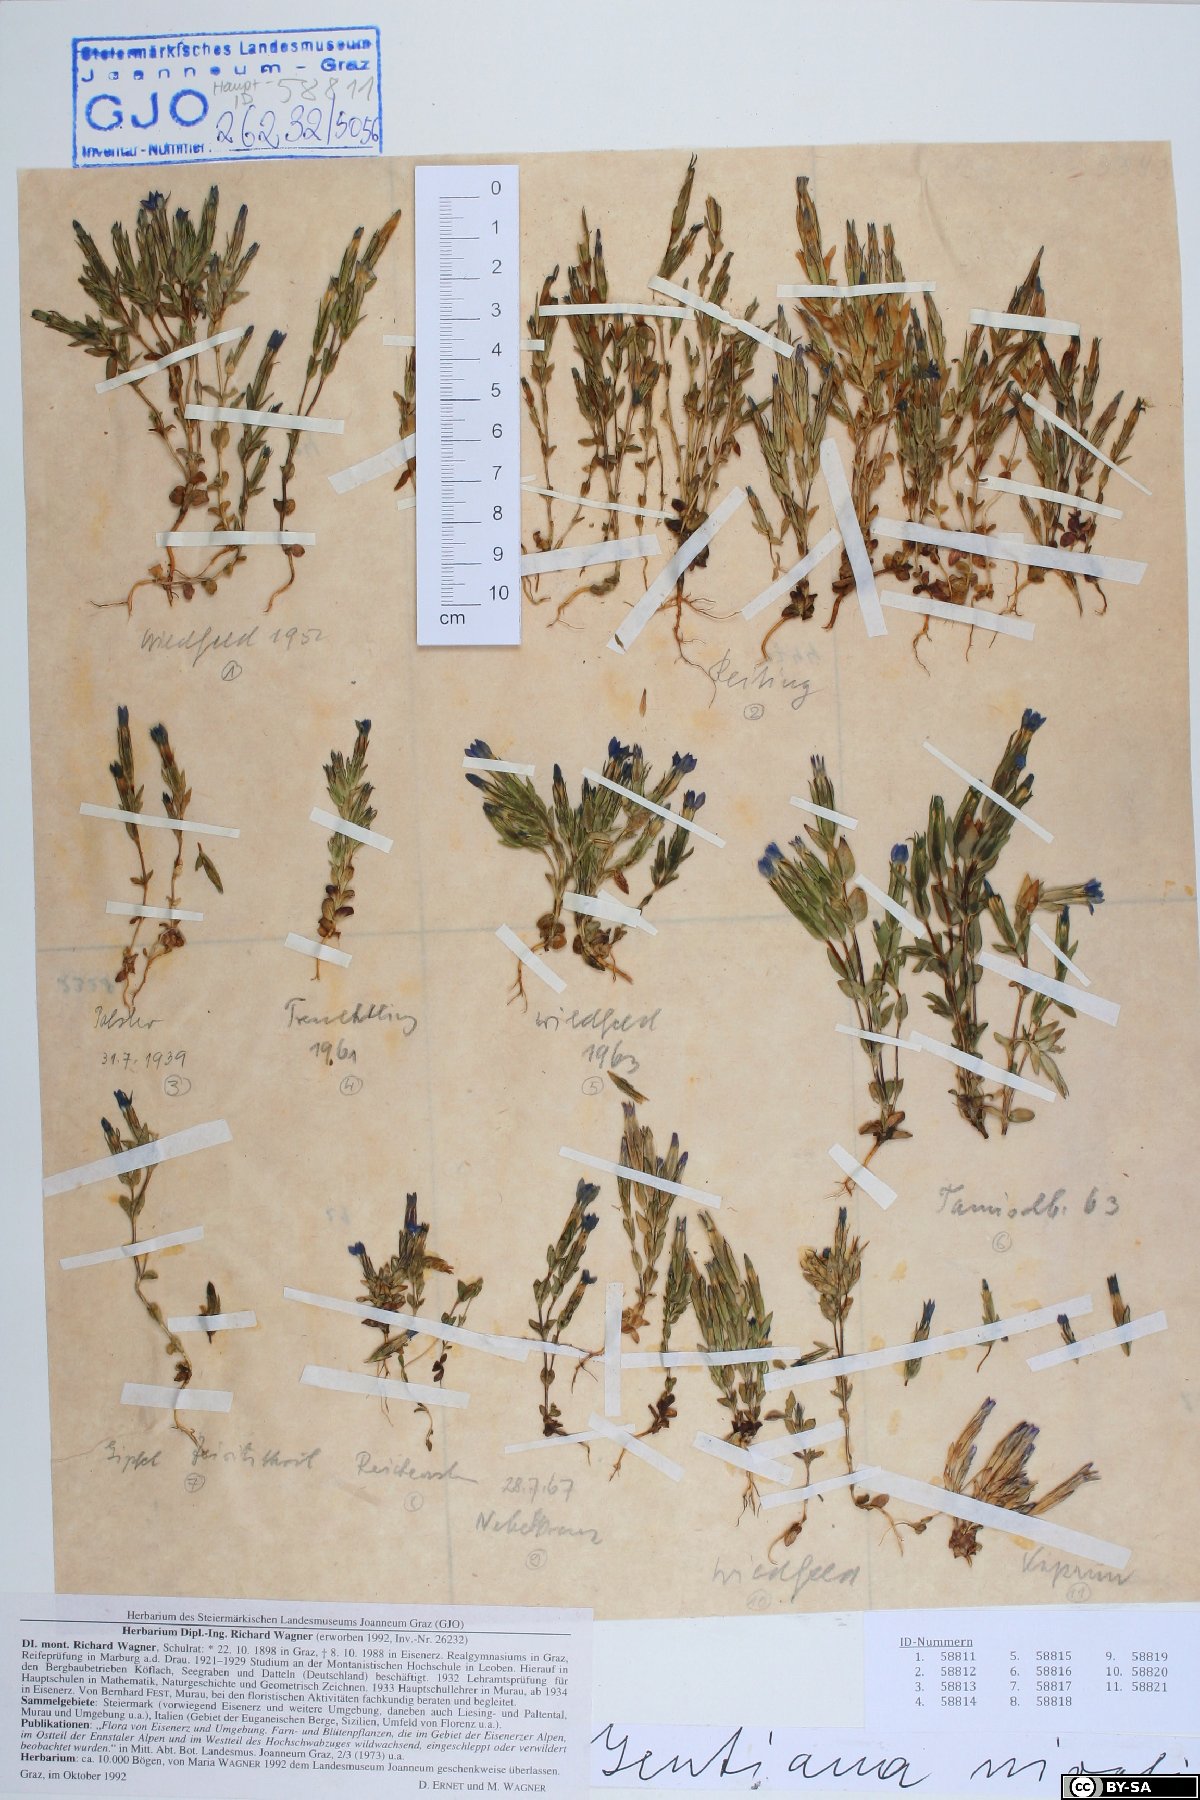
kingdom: Plantae
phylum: Tracheophyta
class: Magnoliopsida
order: Gentianales
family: Gentianaceae
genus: Gentiana
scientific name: Gentiana nivalis
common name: Alpine gentian
